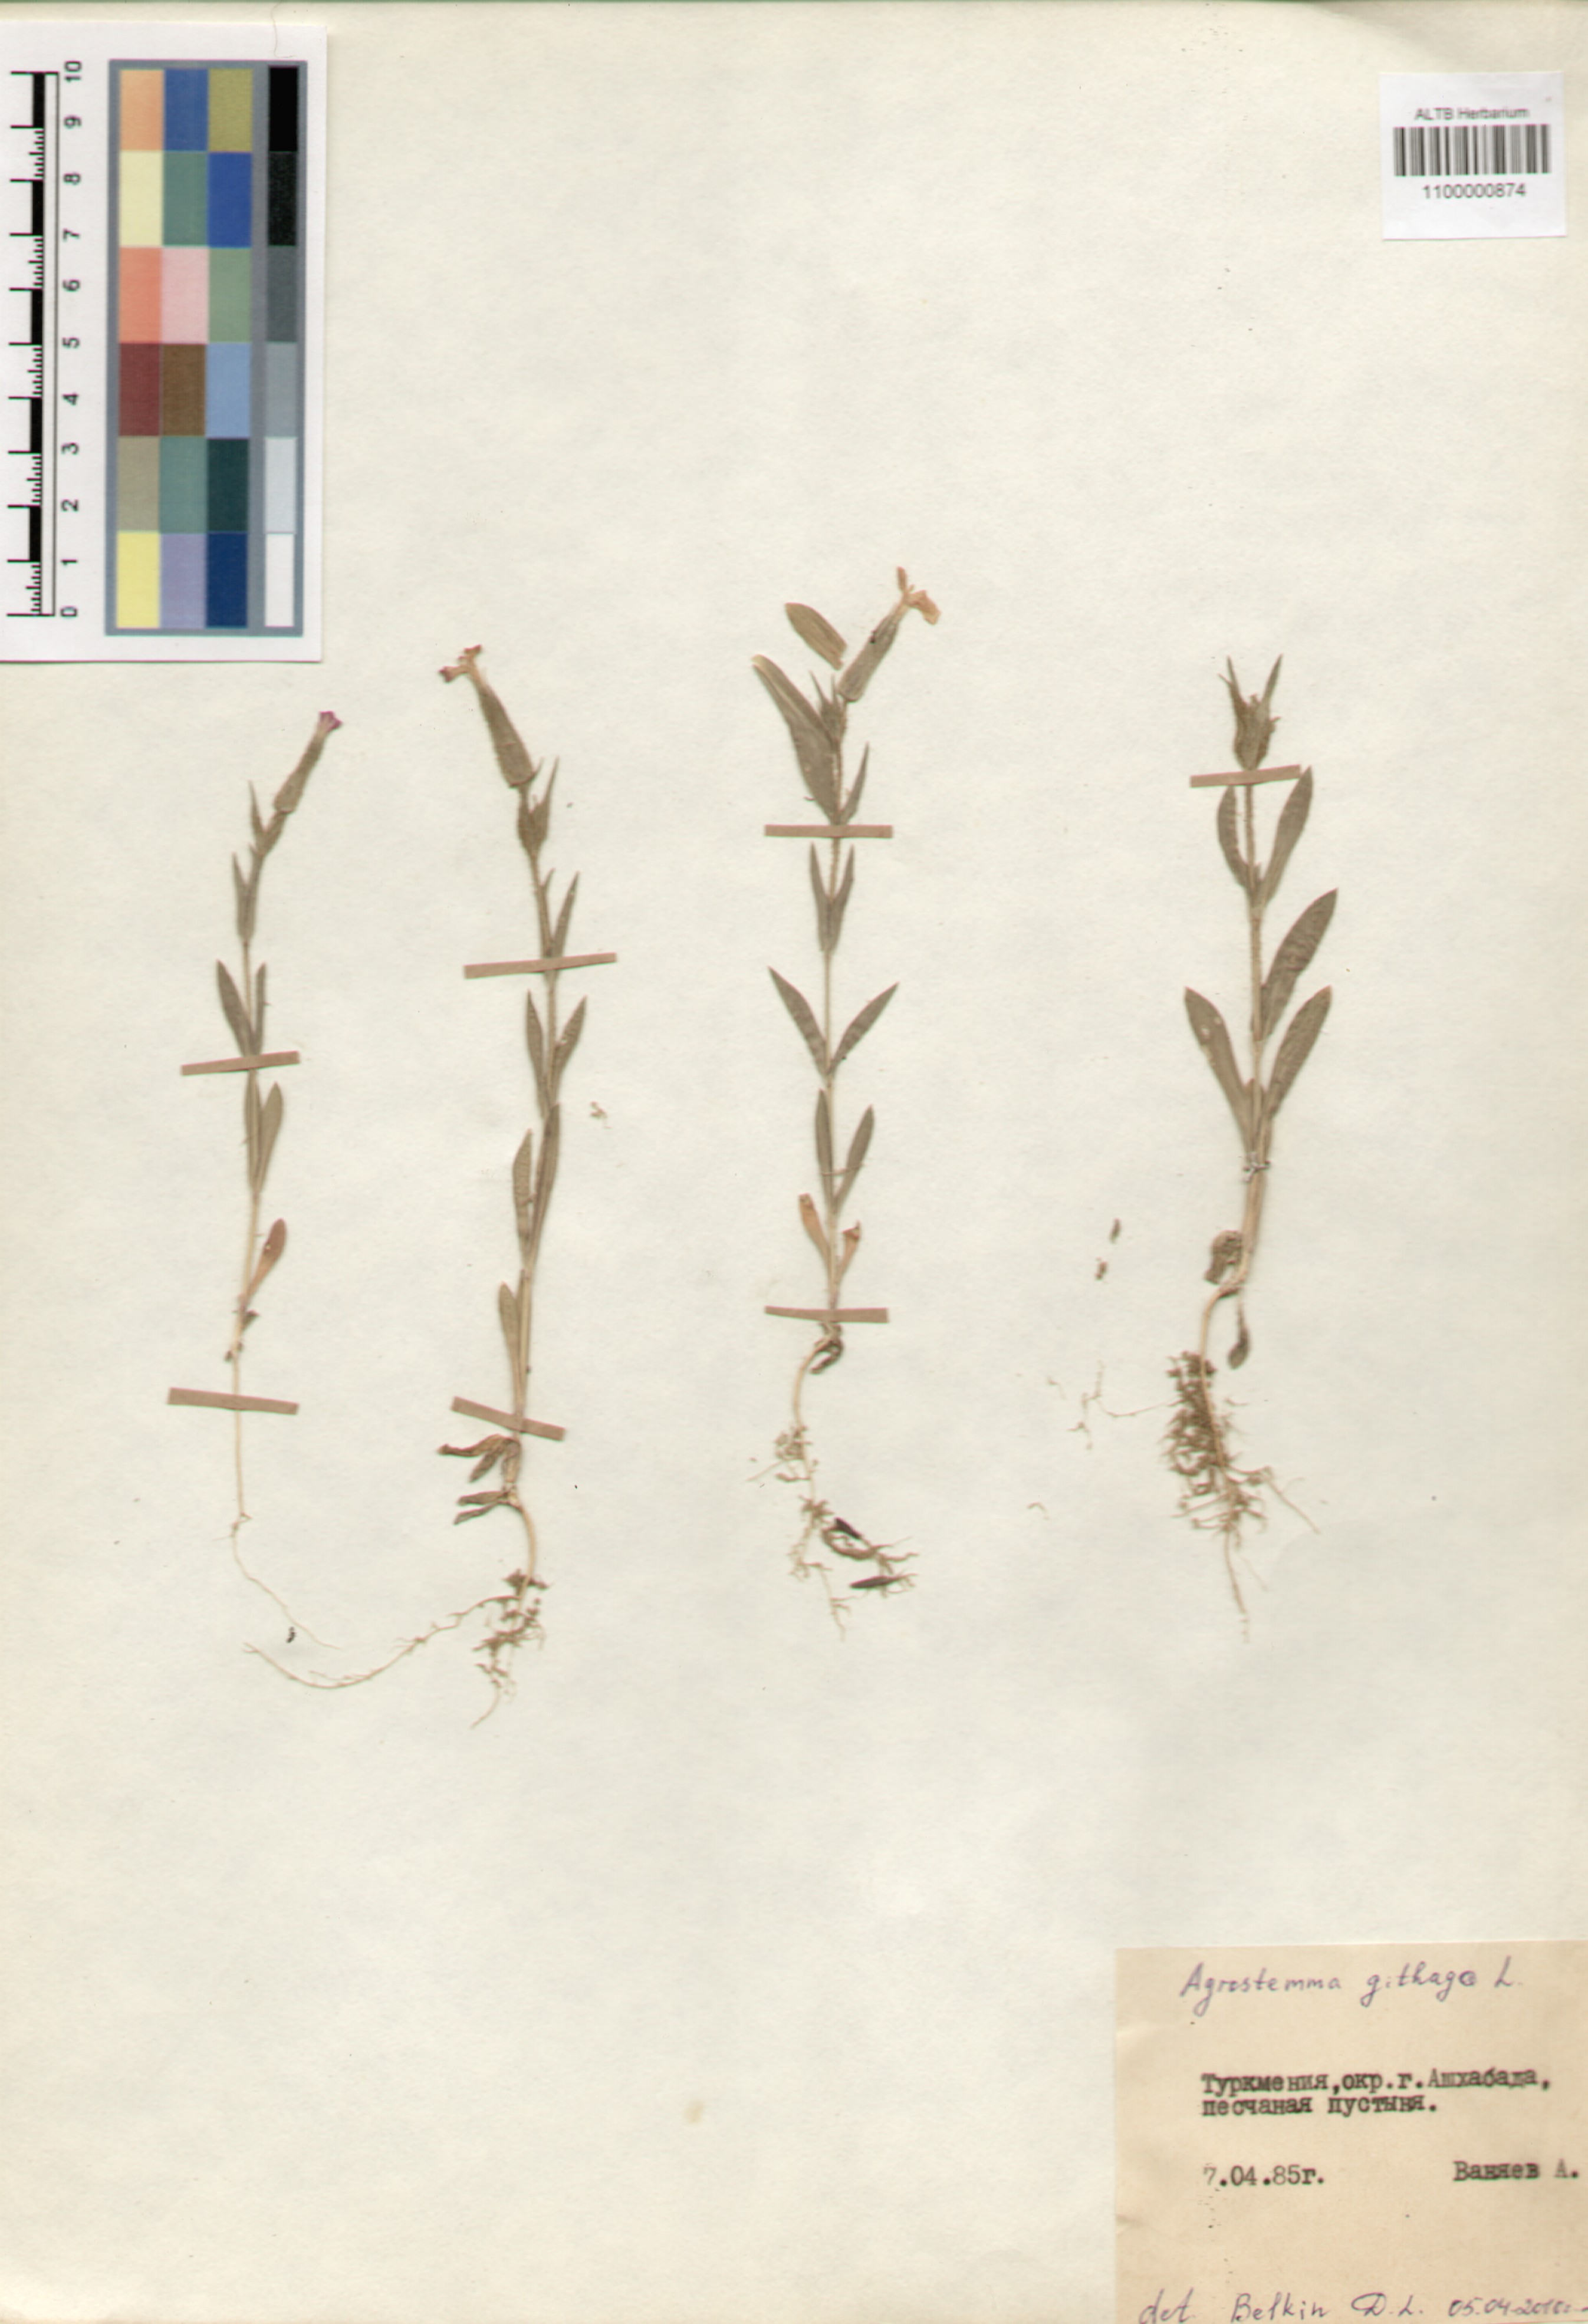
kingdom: Plantae
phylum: Tracheophyta
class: Magnoliopsida
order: Caryophyllales
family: Caryophyllaceae
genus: Agrostemma
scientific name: Agrostemma githago
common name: Common corncockle
